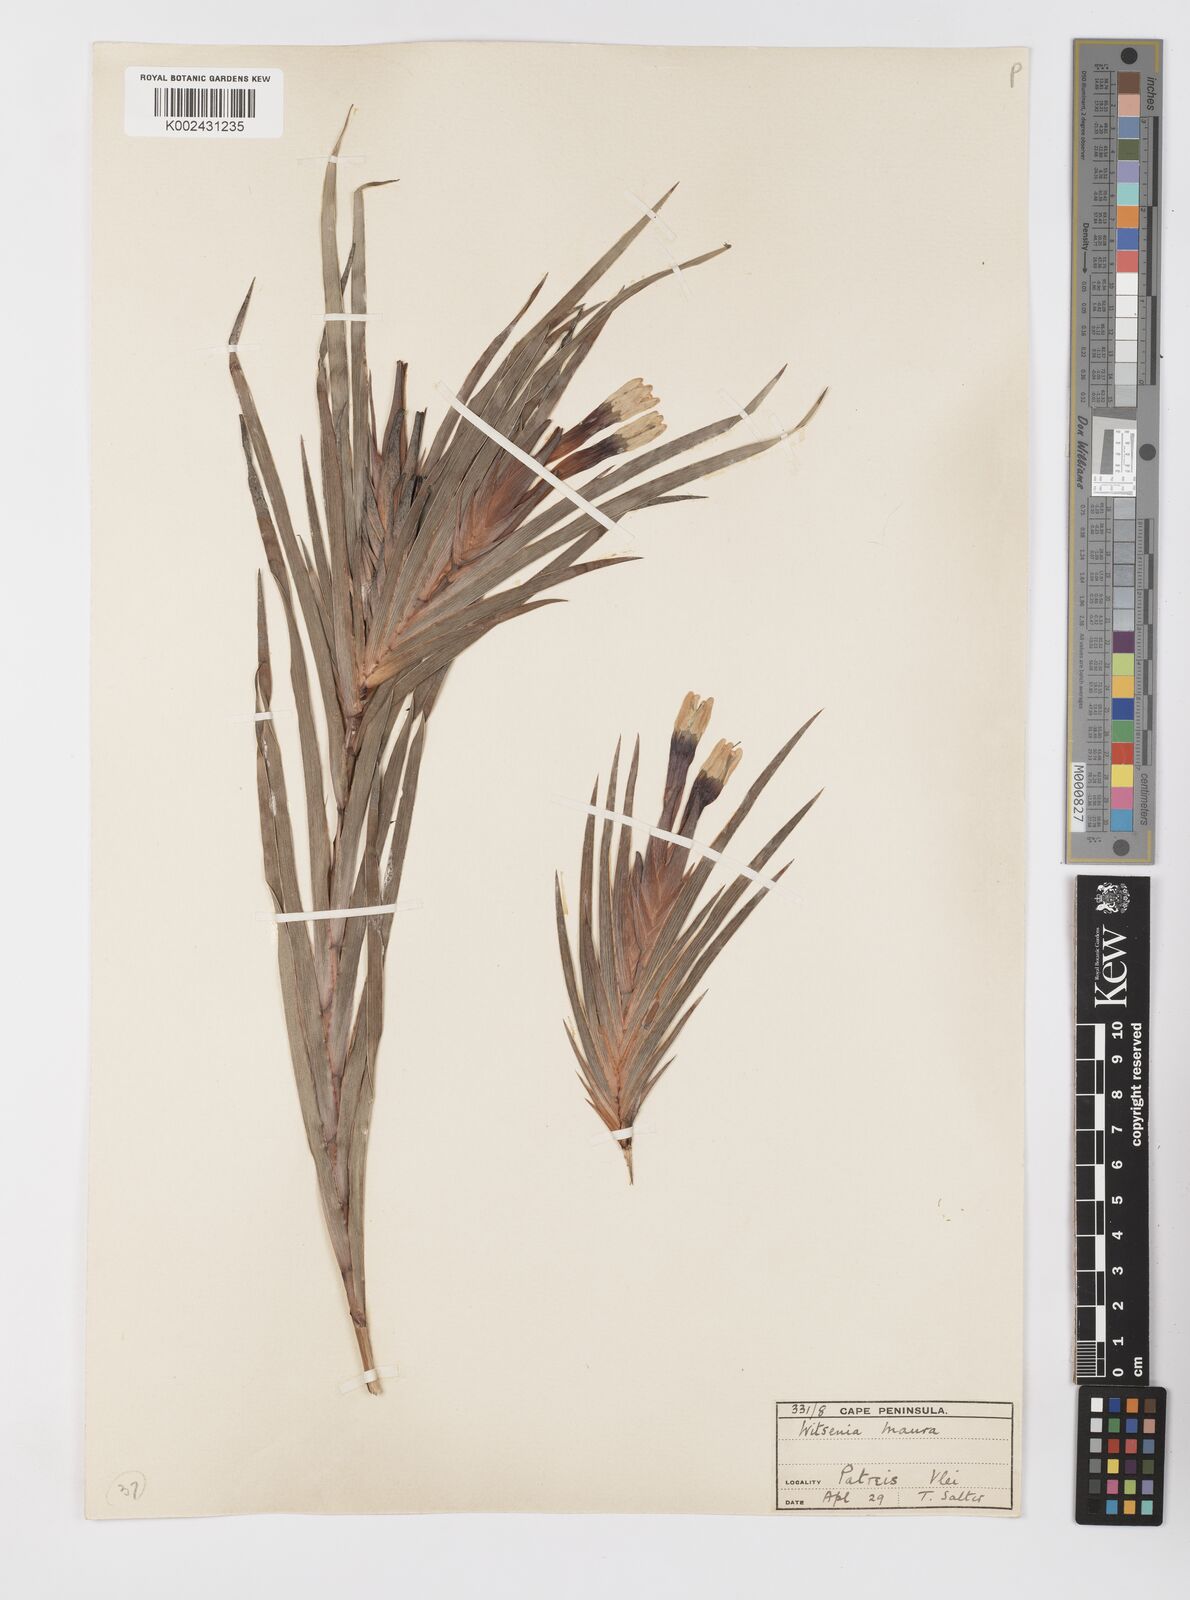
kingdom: Plantae
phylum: Tracheophyta
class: Liliopsida
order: Asparagales
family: Iridaceae
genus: Witsenia
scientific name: Witsenia maura
